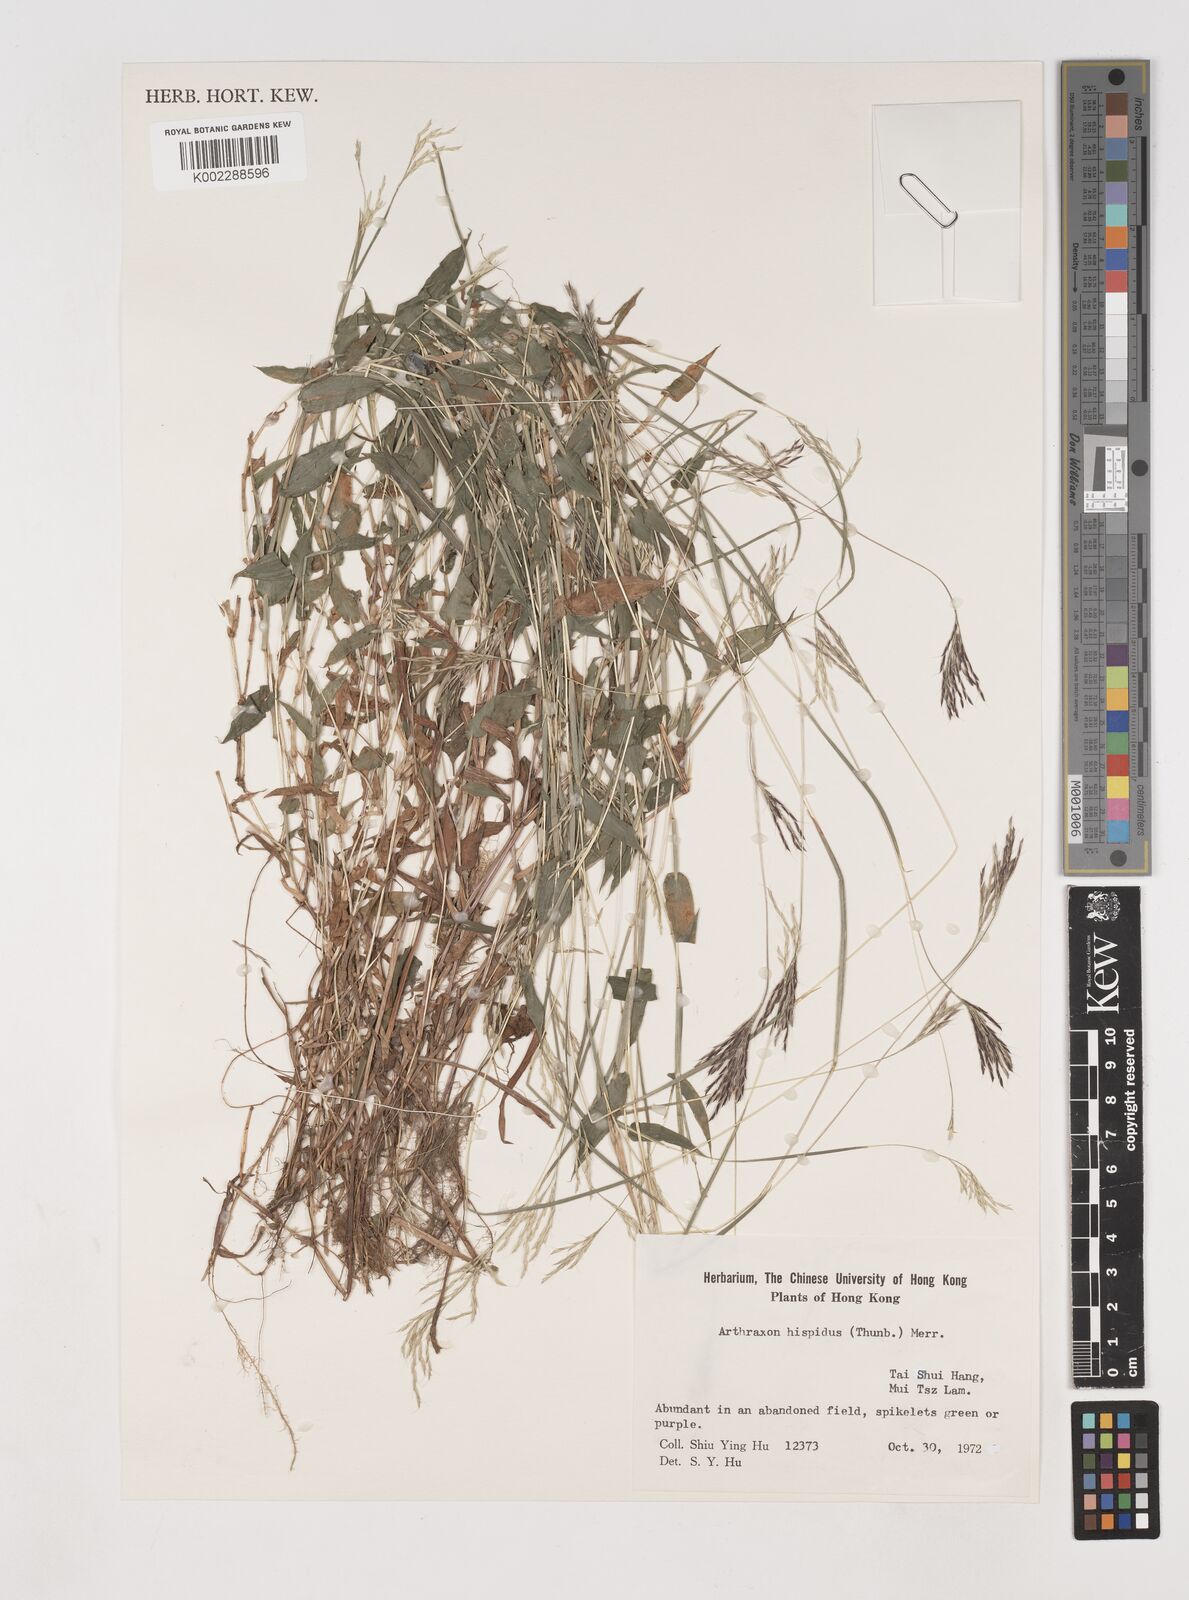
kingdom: Plantae
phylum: Tracheophyta
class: Liliopsida
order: Poales
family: Poaceae
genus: Arthraxon
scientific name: Arthraxon hispidus
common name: Small carpgrass
